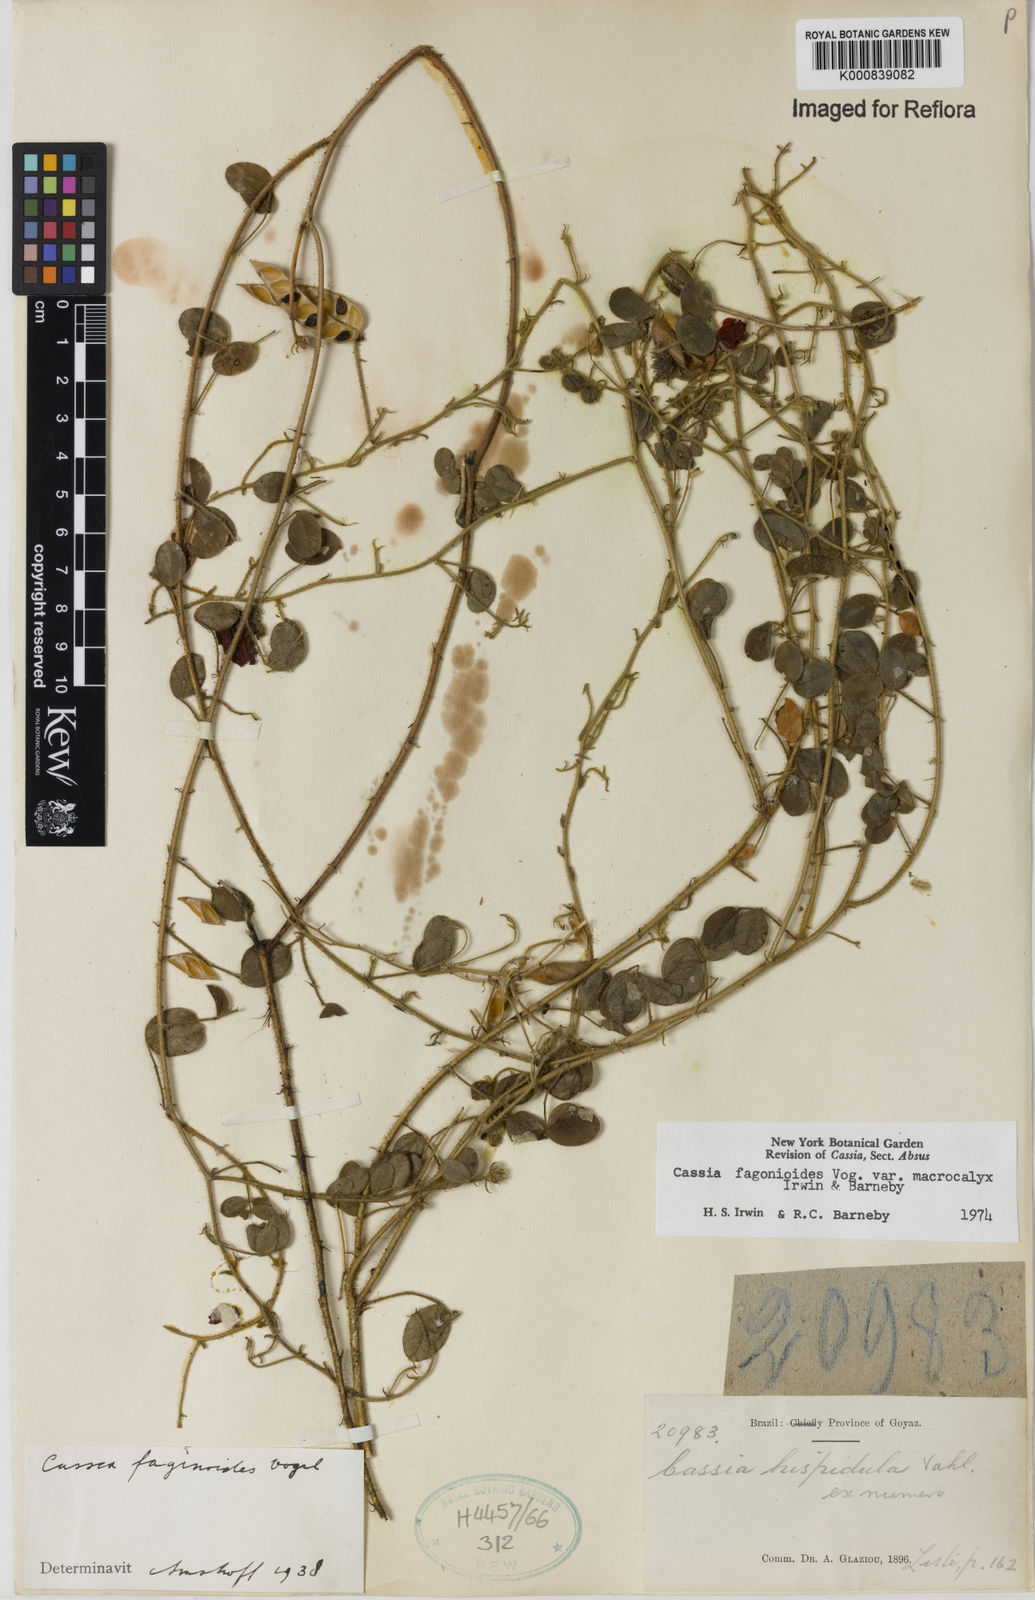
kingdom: Plantae
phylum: Tracheophyta
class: Magnoliopsida
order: Fabales
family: Fabaceae
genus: Chamaecrista
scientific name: Chamaecrista fagonioides
